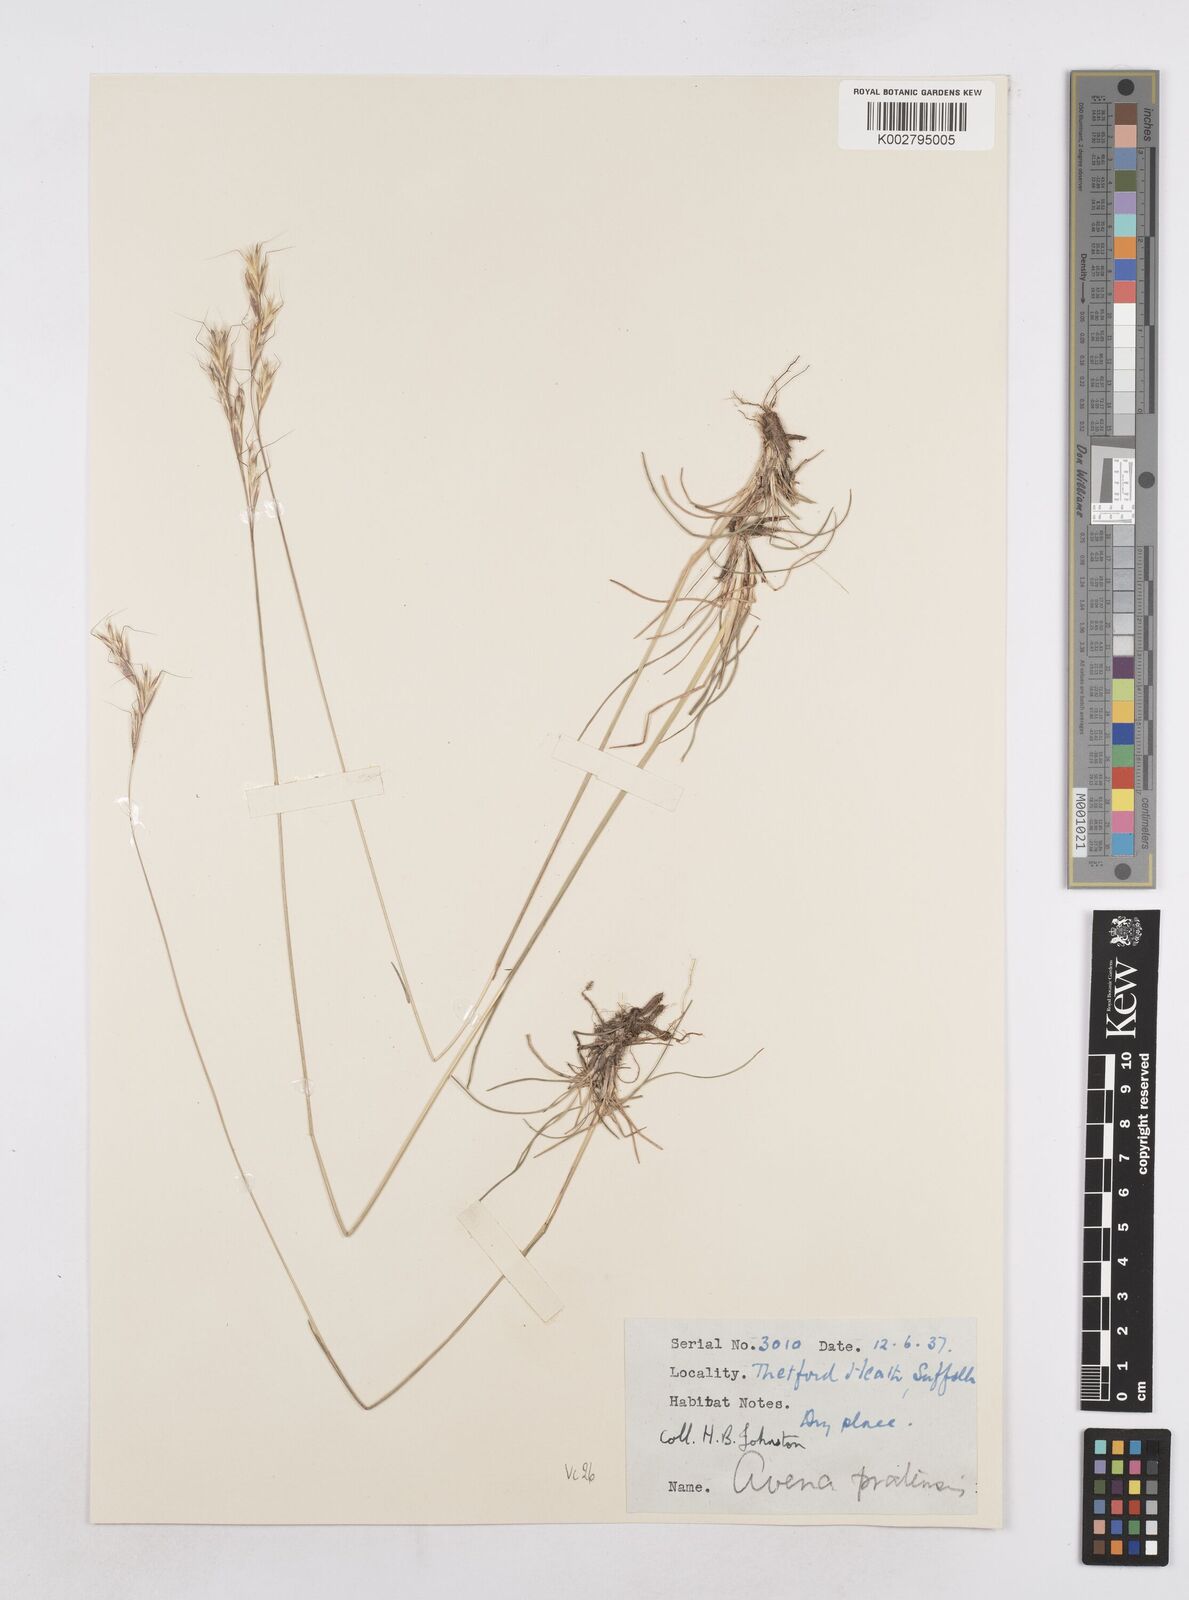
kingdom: Plantae
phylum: Tracheophyta
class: Liliopsida
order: Poales
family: Poaceae
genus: Helictochloa
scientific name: Helictochloa pratensis
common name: Meadow oat grass
